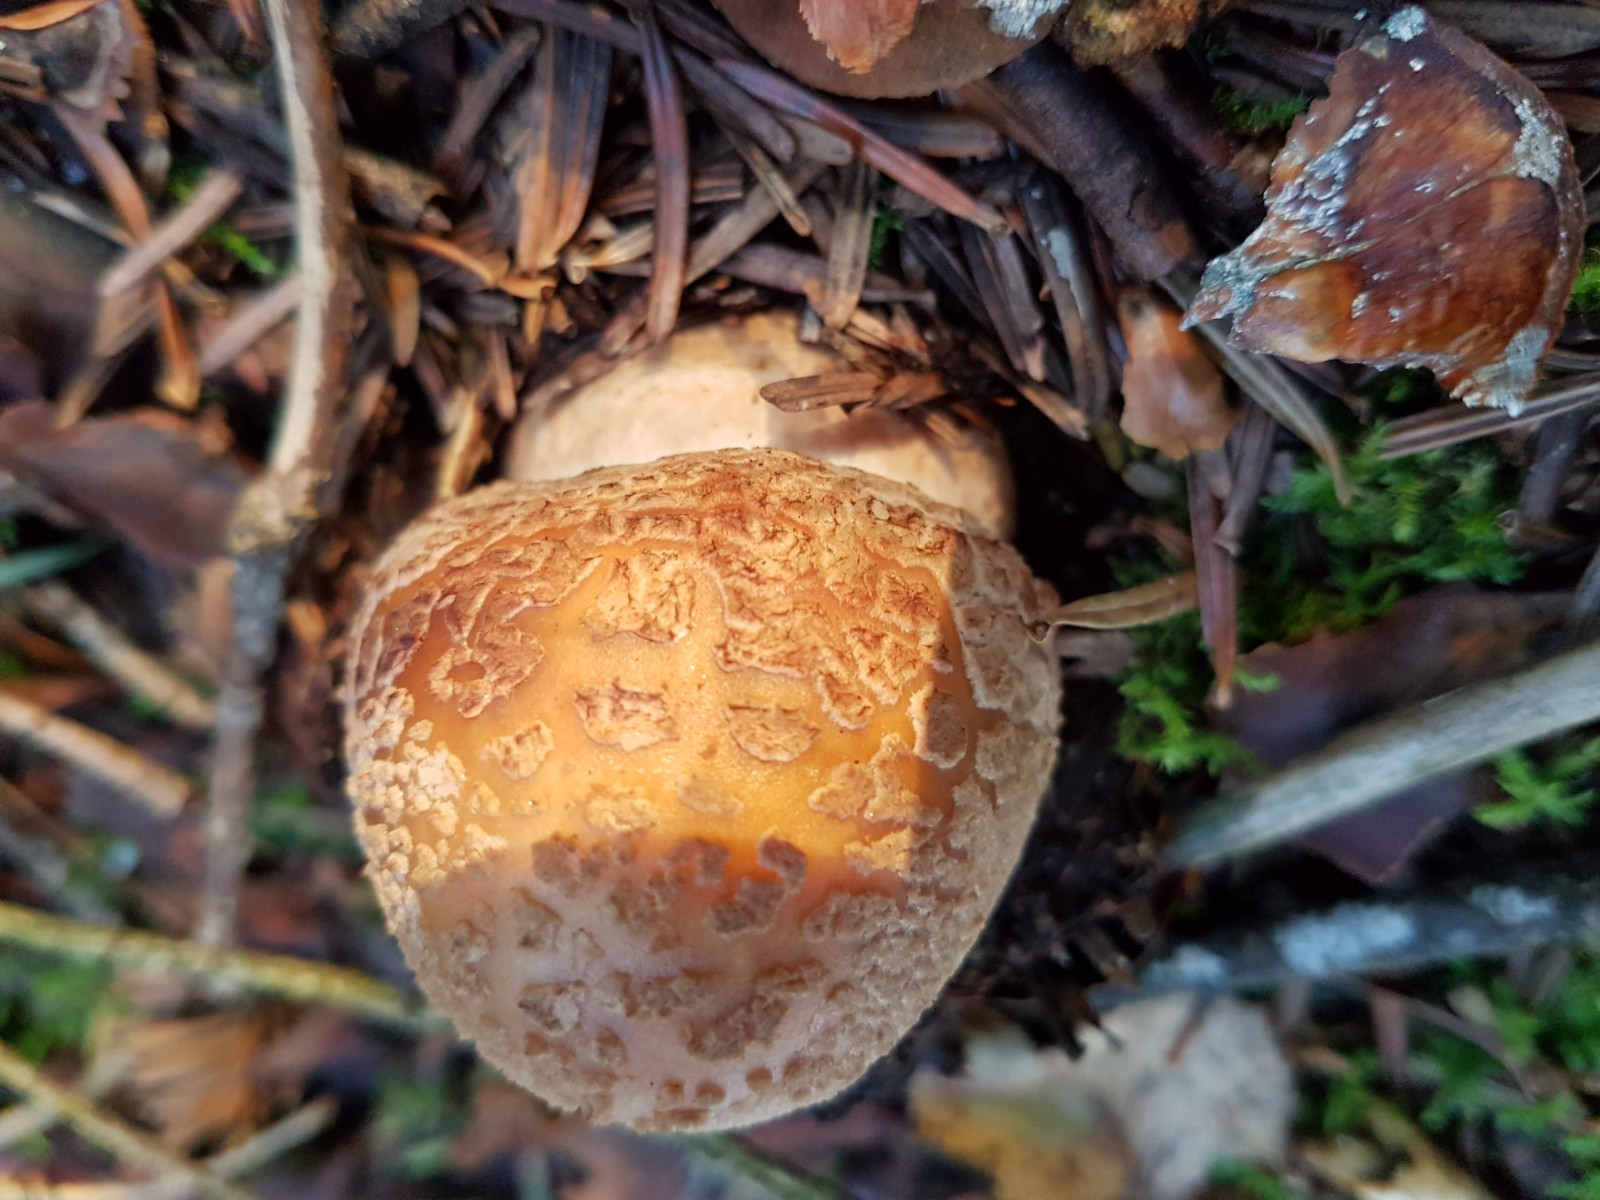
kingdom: Fungi
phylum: Basidiomycota
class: Agaricomycetes
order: Agaricales
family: Amanitaceae
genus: Amanita
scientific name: Amanita rubescens
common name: rødmende fluesvamp
